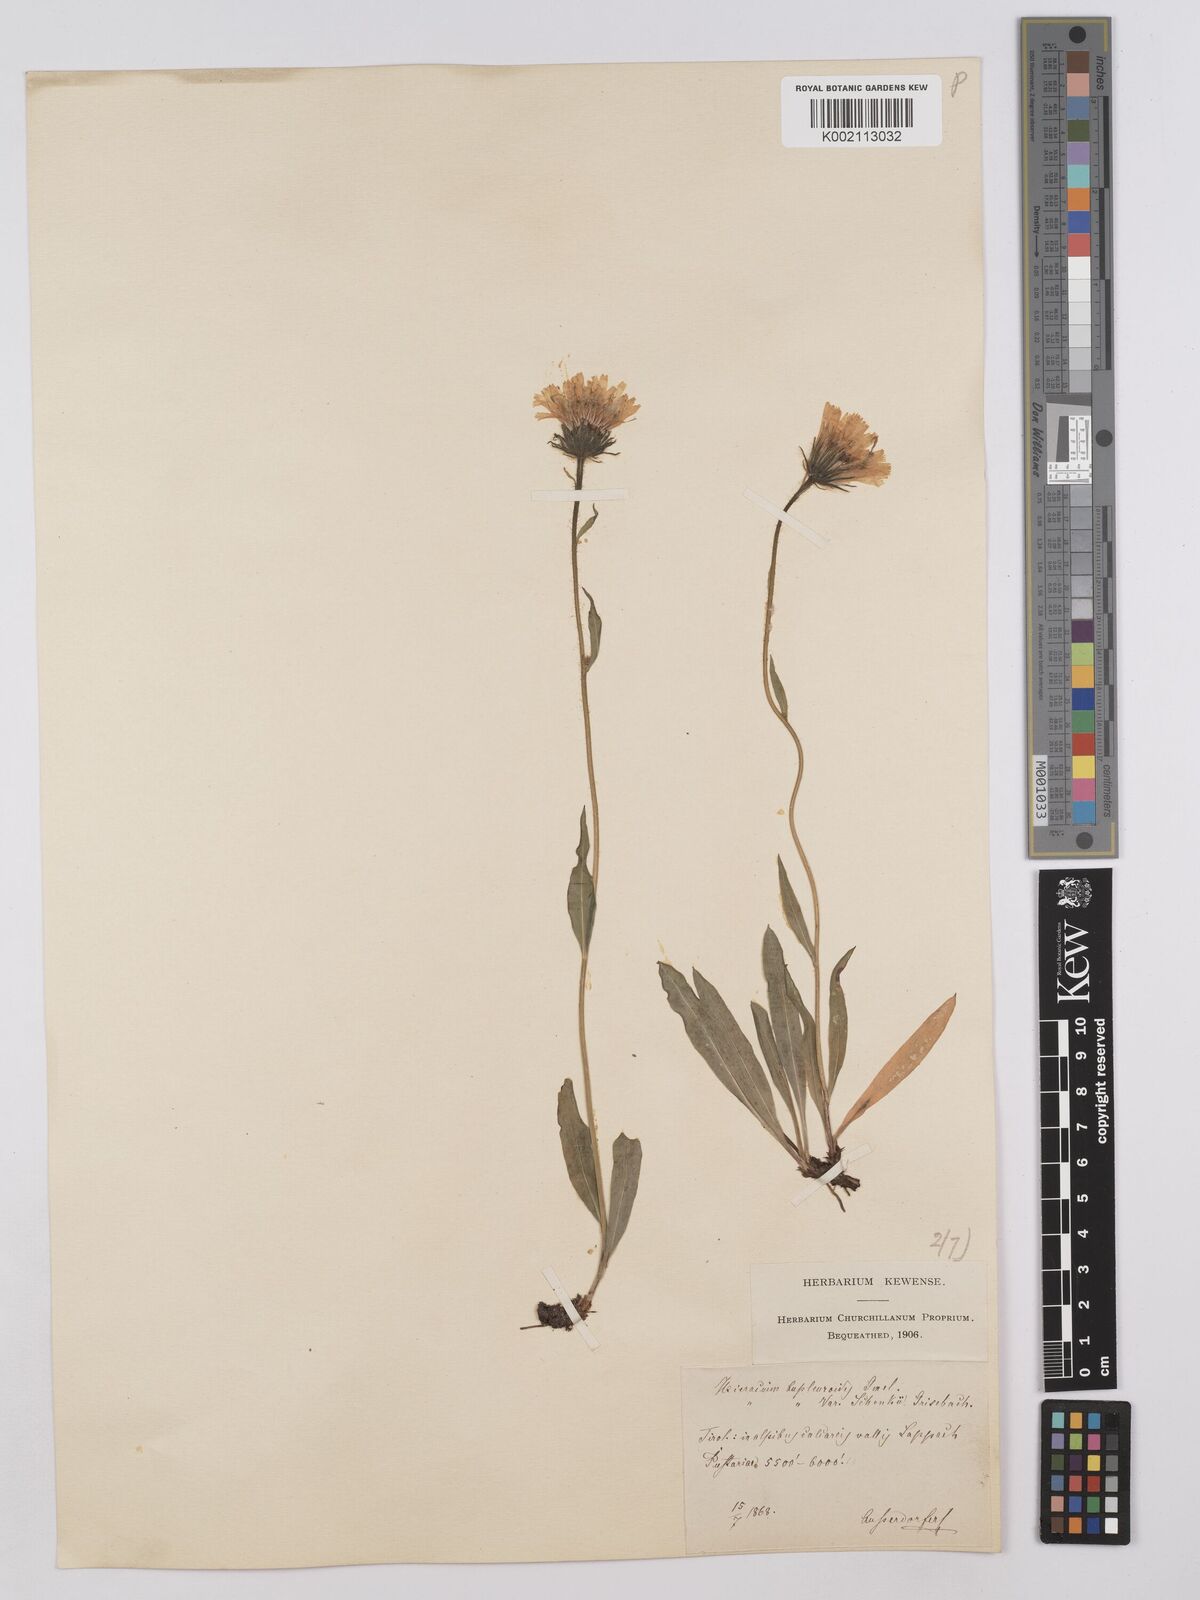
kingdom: Plantae
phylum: Tracheophyta
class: Magnoliopsida
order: Asterales
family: Asteraceae
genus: Hieracium
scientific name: Hieracium bupleuroides
